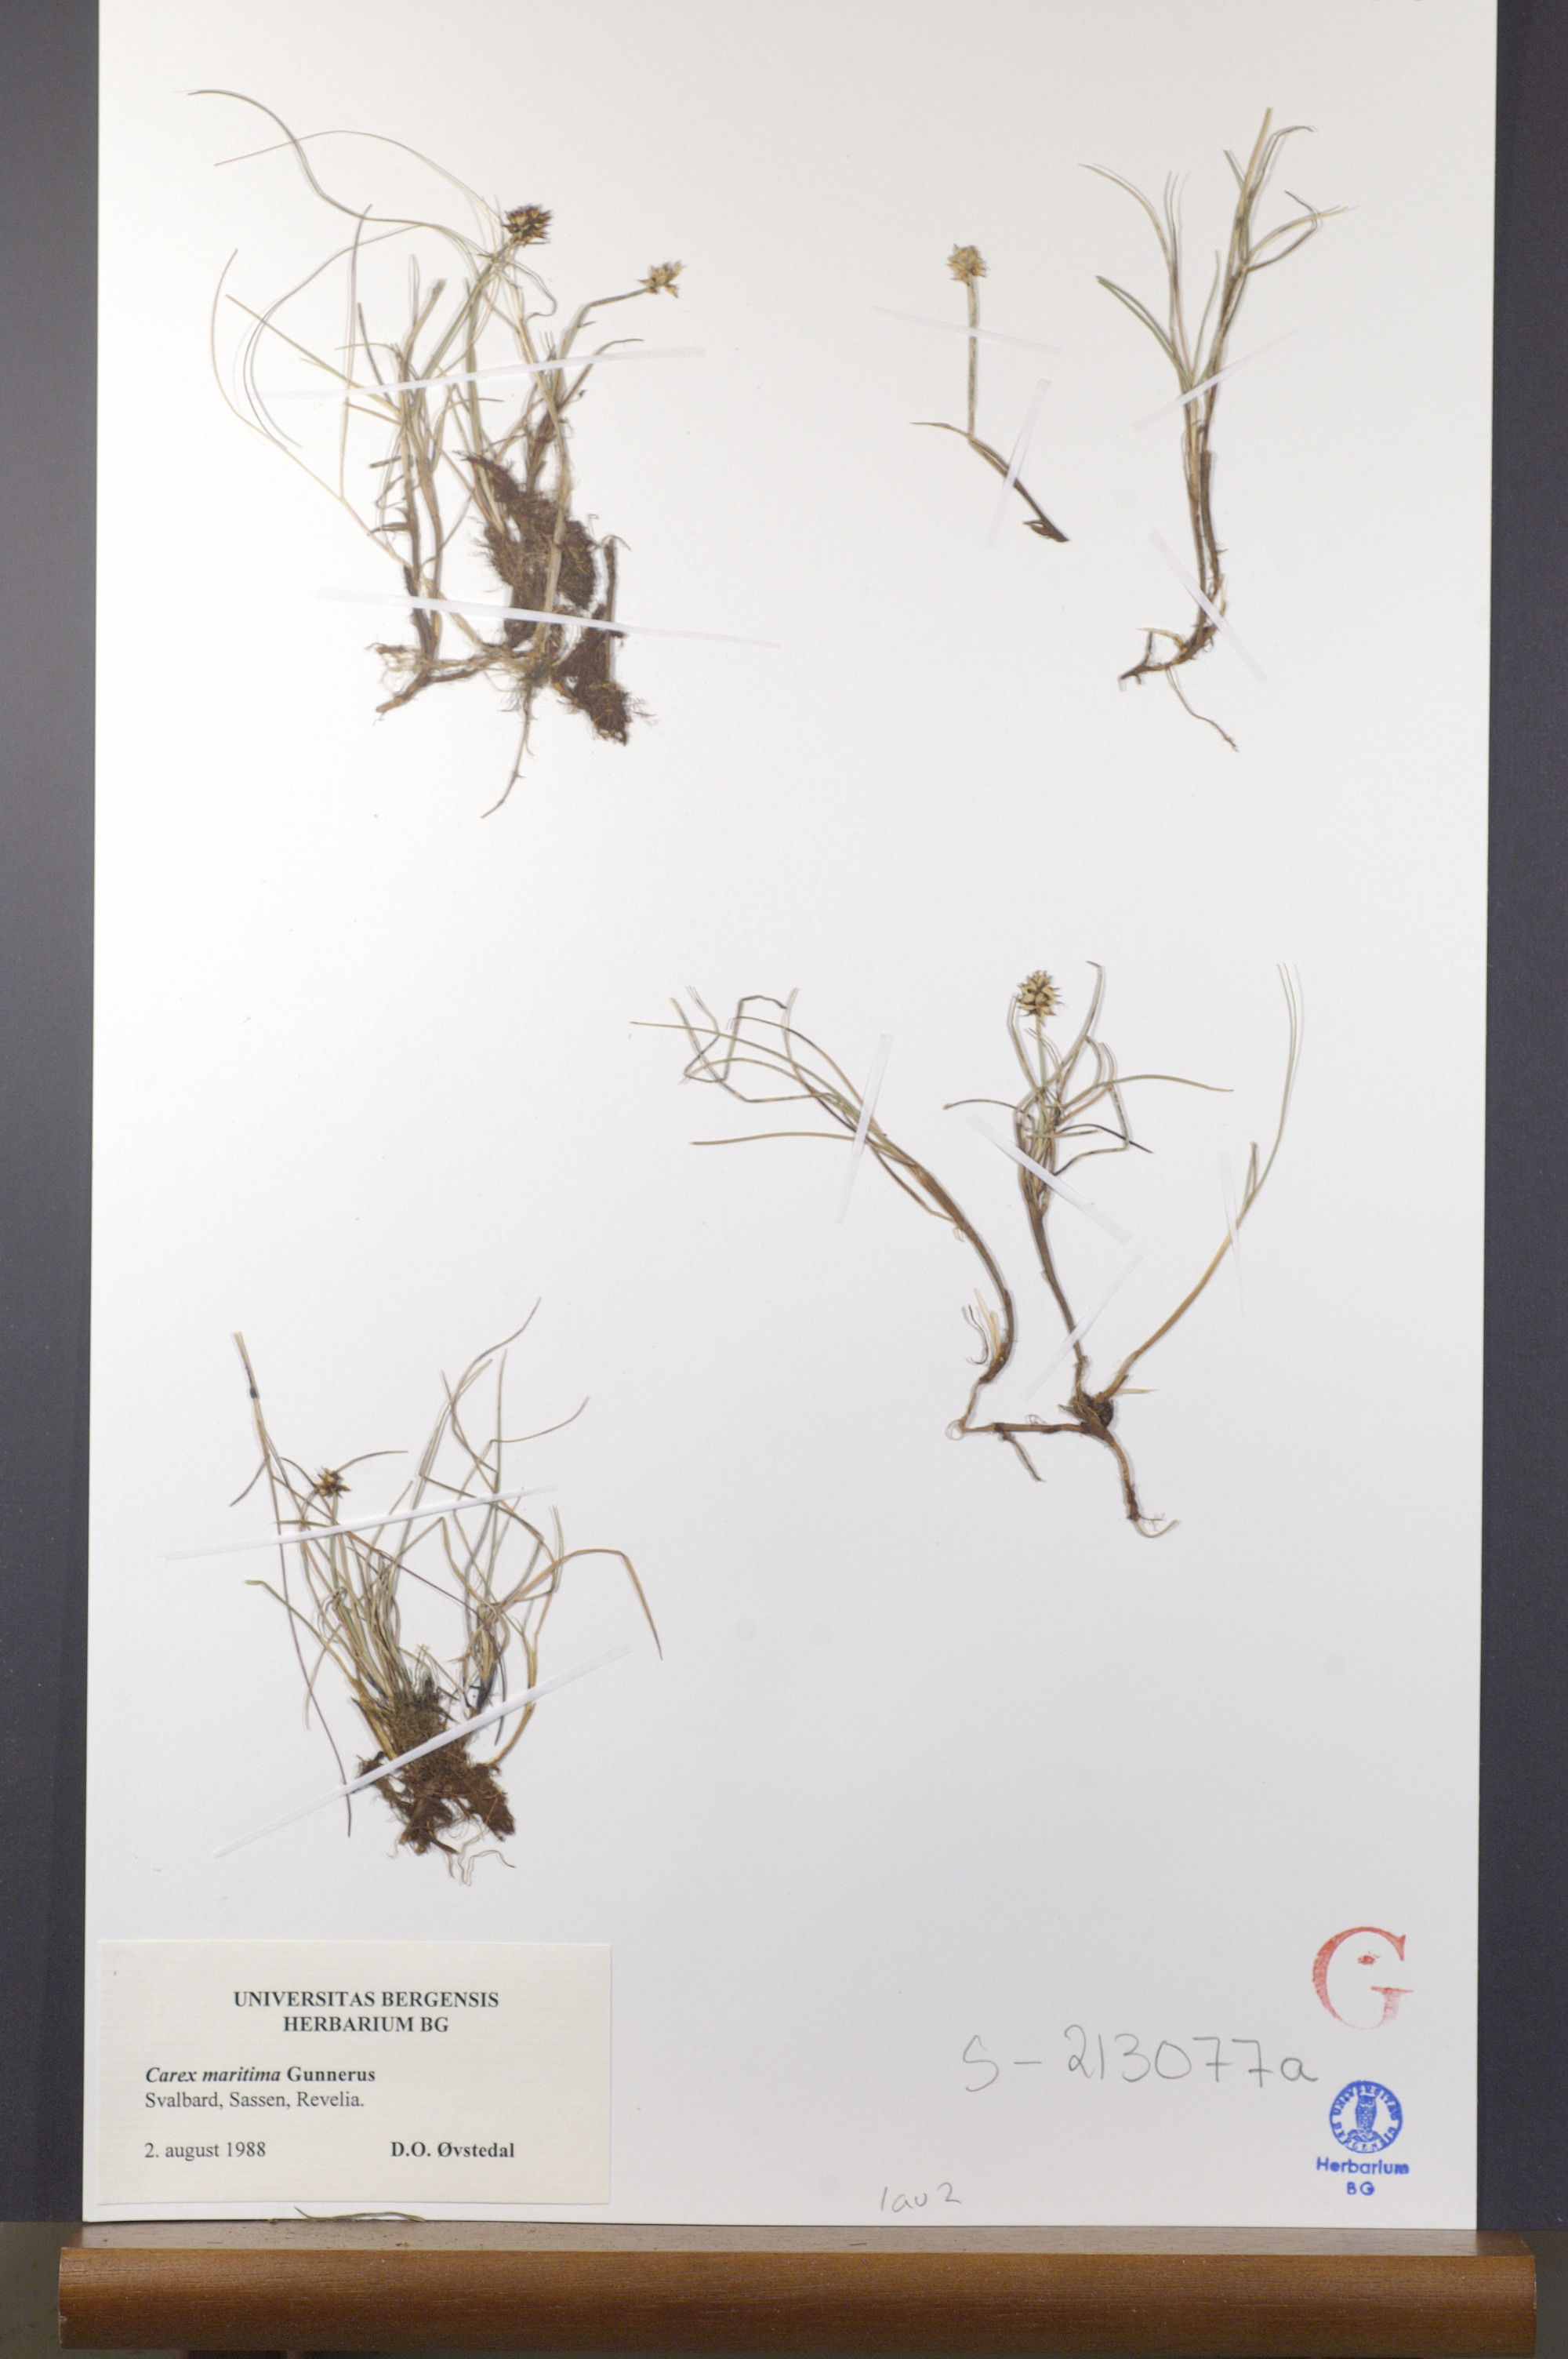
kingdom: Plantae
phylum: Tracheophyta
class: Liliopsida
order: Poales
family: Cyperaceae
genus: Carex
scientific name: Carex maritima
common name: Curved sedge
